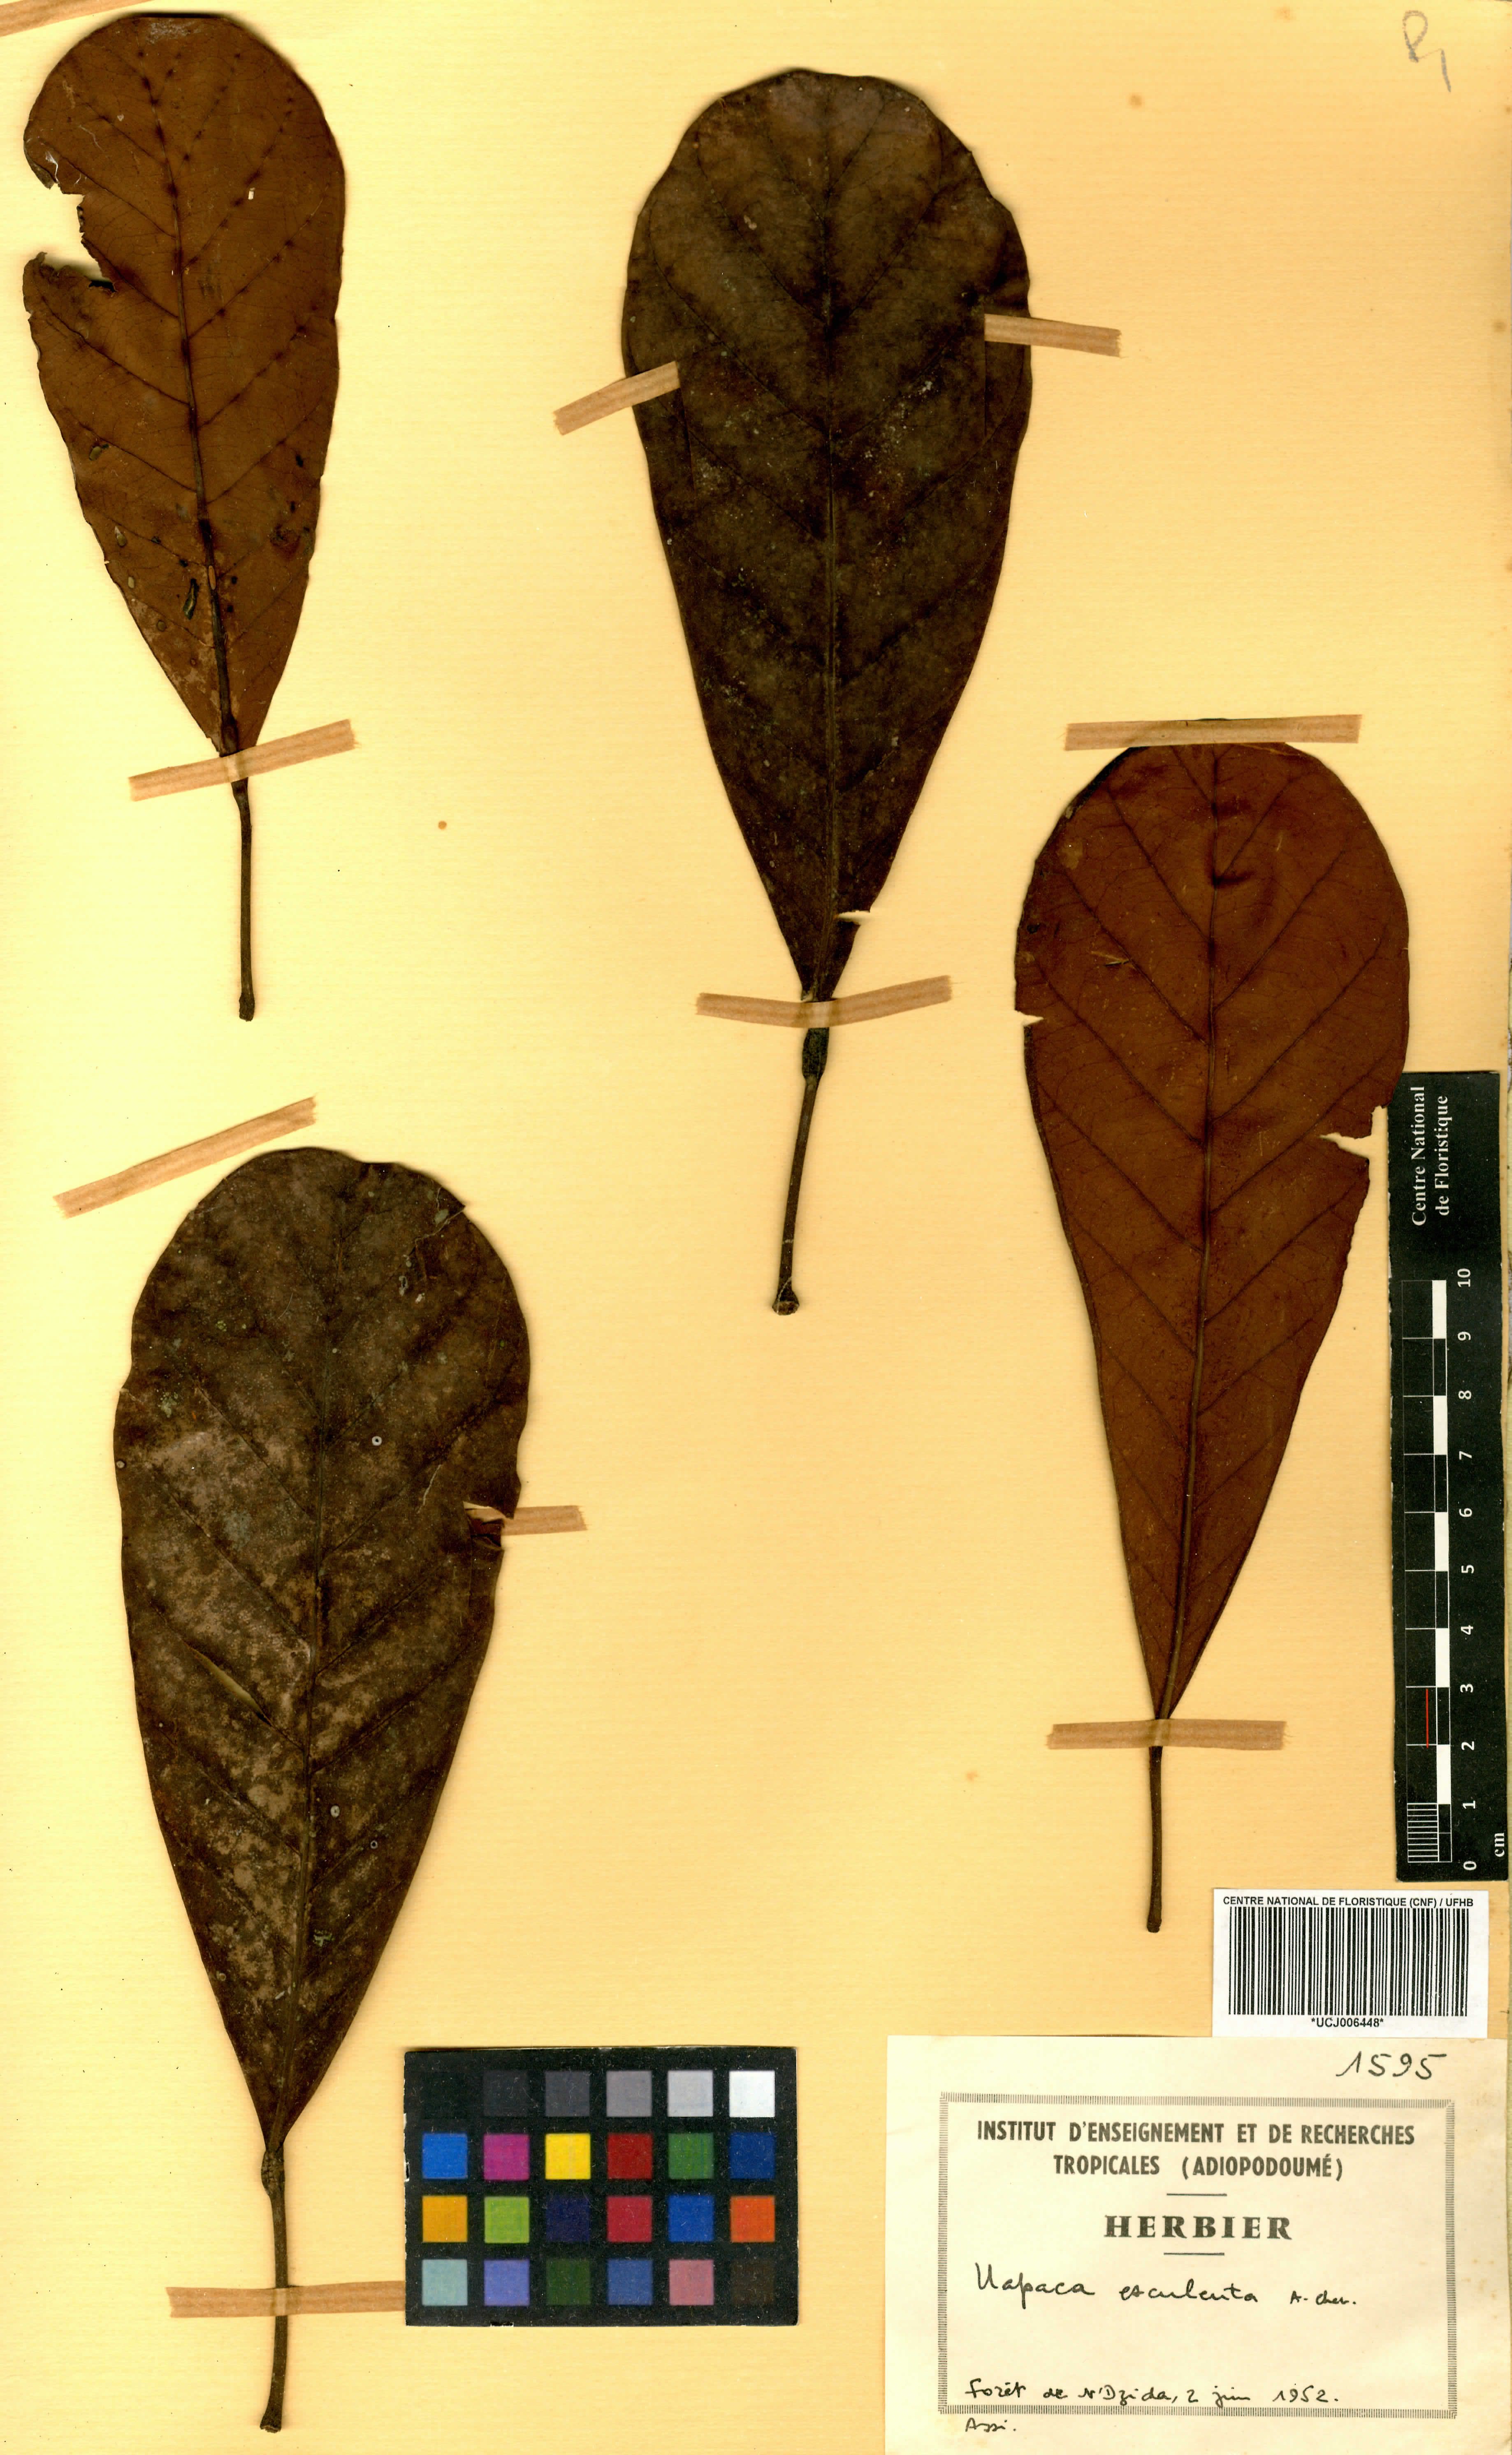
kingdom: Plantae
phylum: Tracheophyta
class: Magnoliopsida
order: Malpighiales
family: Phyllanthaceae
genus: Uapaca
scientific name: Uapaca pynaertii
